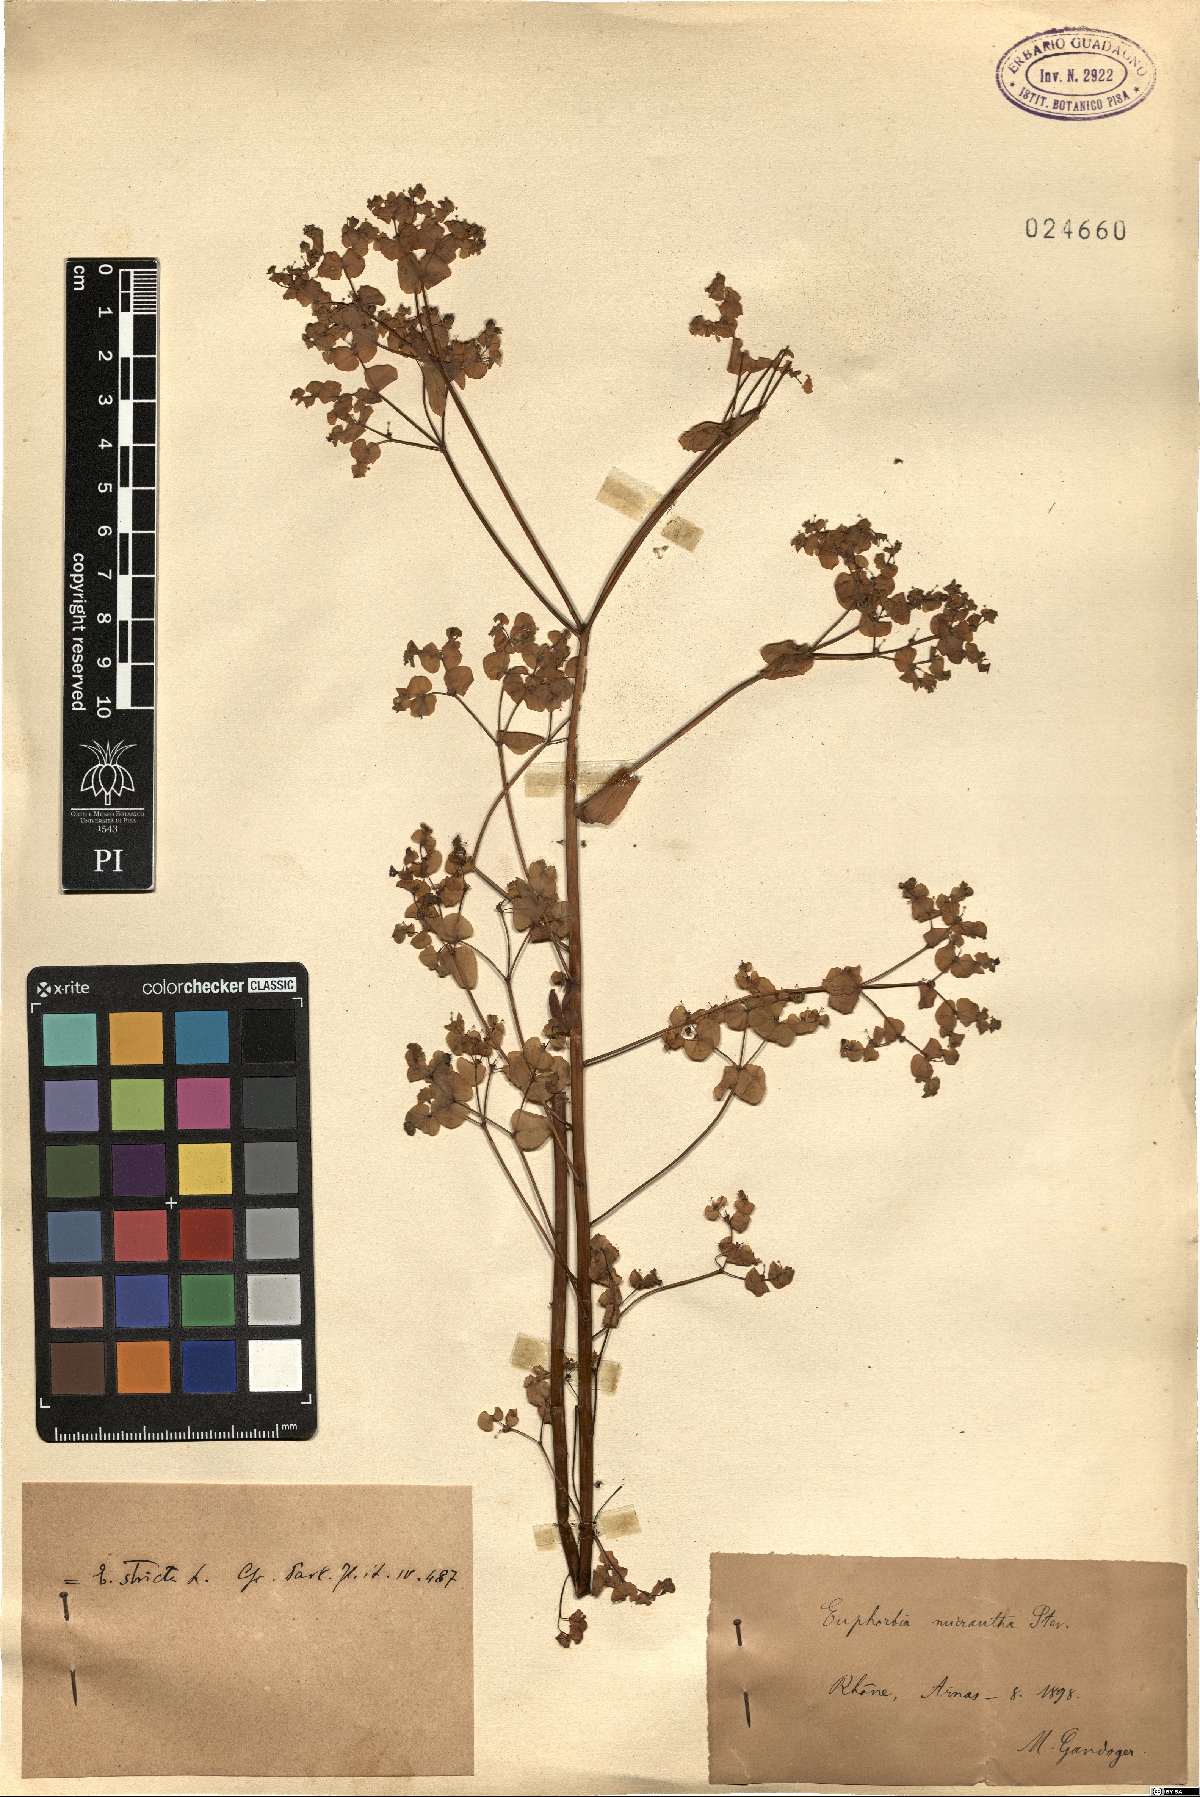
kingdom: Plantae
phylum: Tracheophyta
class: Magnoliopsida
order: Malpighiales
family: Euphorbiaceae
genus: Euphorbia
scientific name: Euphorbia stricta
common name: Upright spurge
